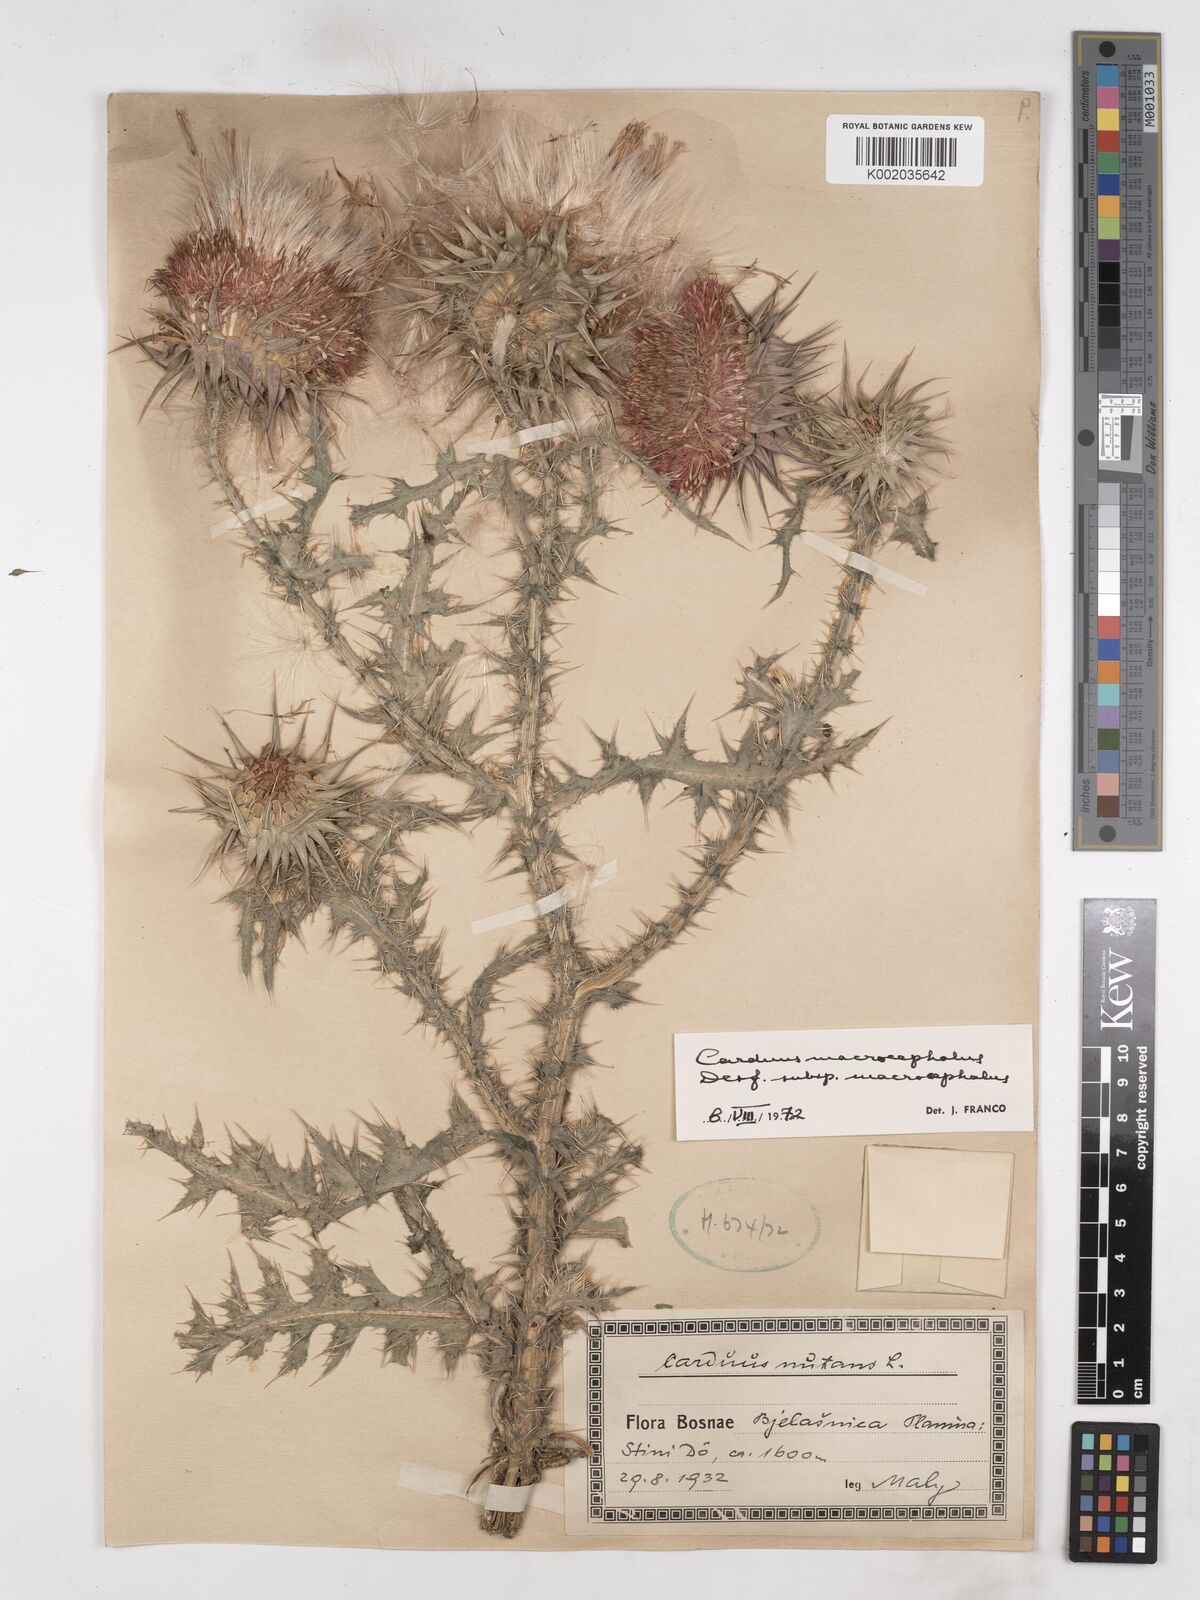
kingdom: Plantae
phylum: Tracheophyta
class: Magnoliopsida
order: Asterales
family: Asteraceae
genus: Carduus
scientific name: Carduus nutans
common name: Musk thistle
